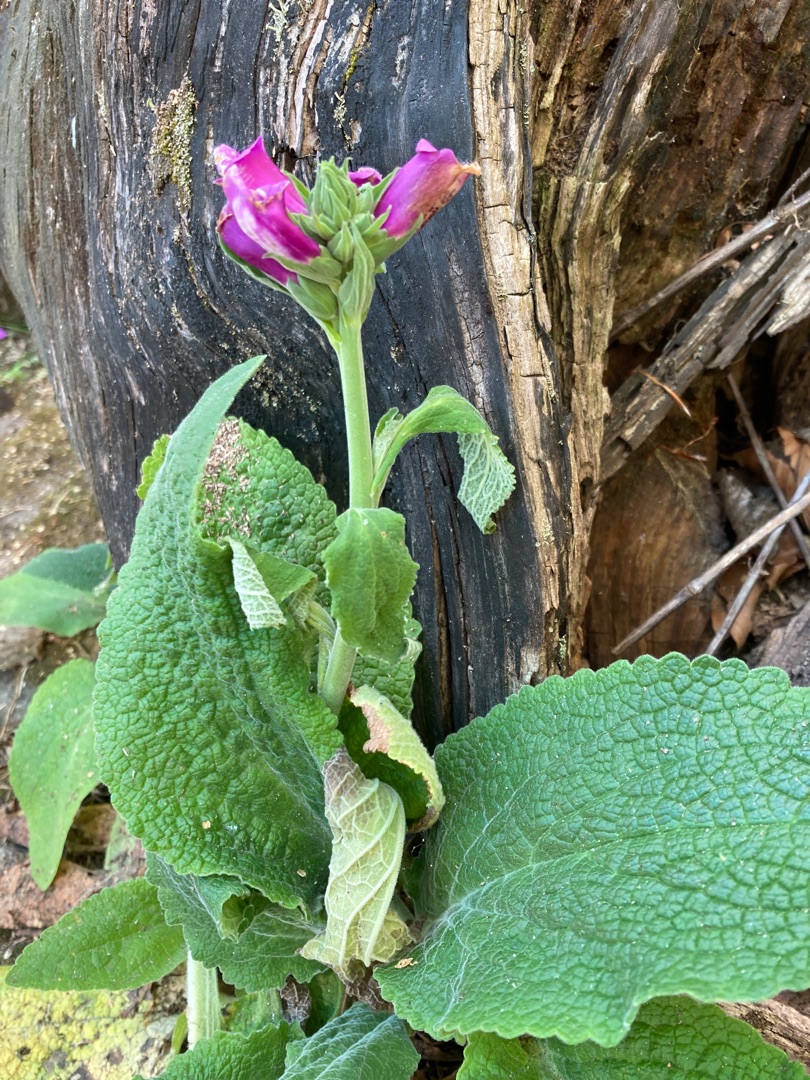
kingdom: Plantae
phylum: Tracheophyta
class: Magnoliopsida
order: Lamiales
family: Plantaginaceae
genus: Digitalis
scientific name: Digitalis purpurea
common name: Almindelig fingerbøl
